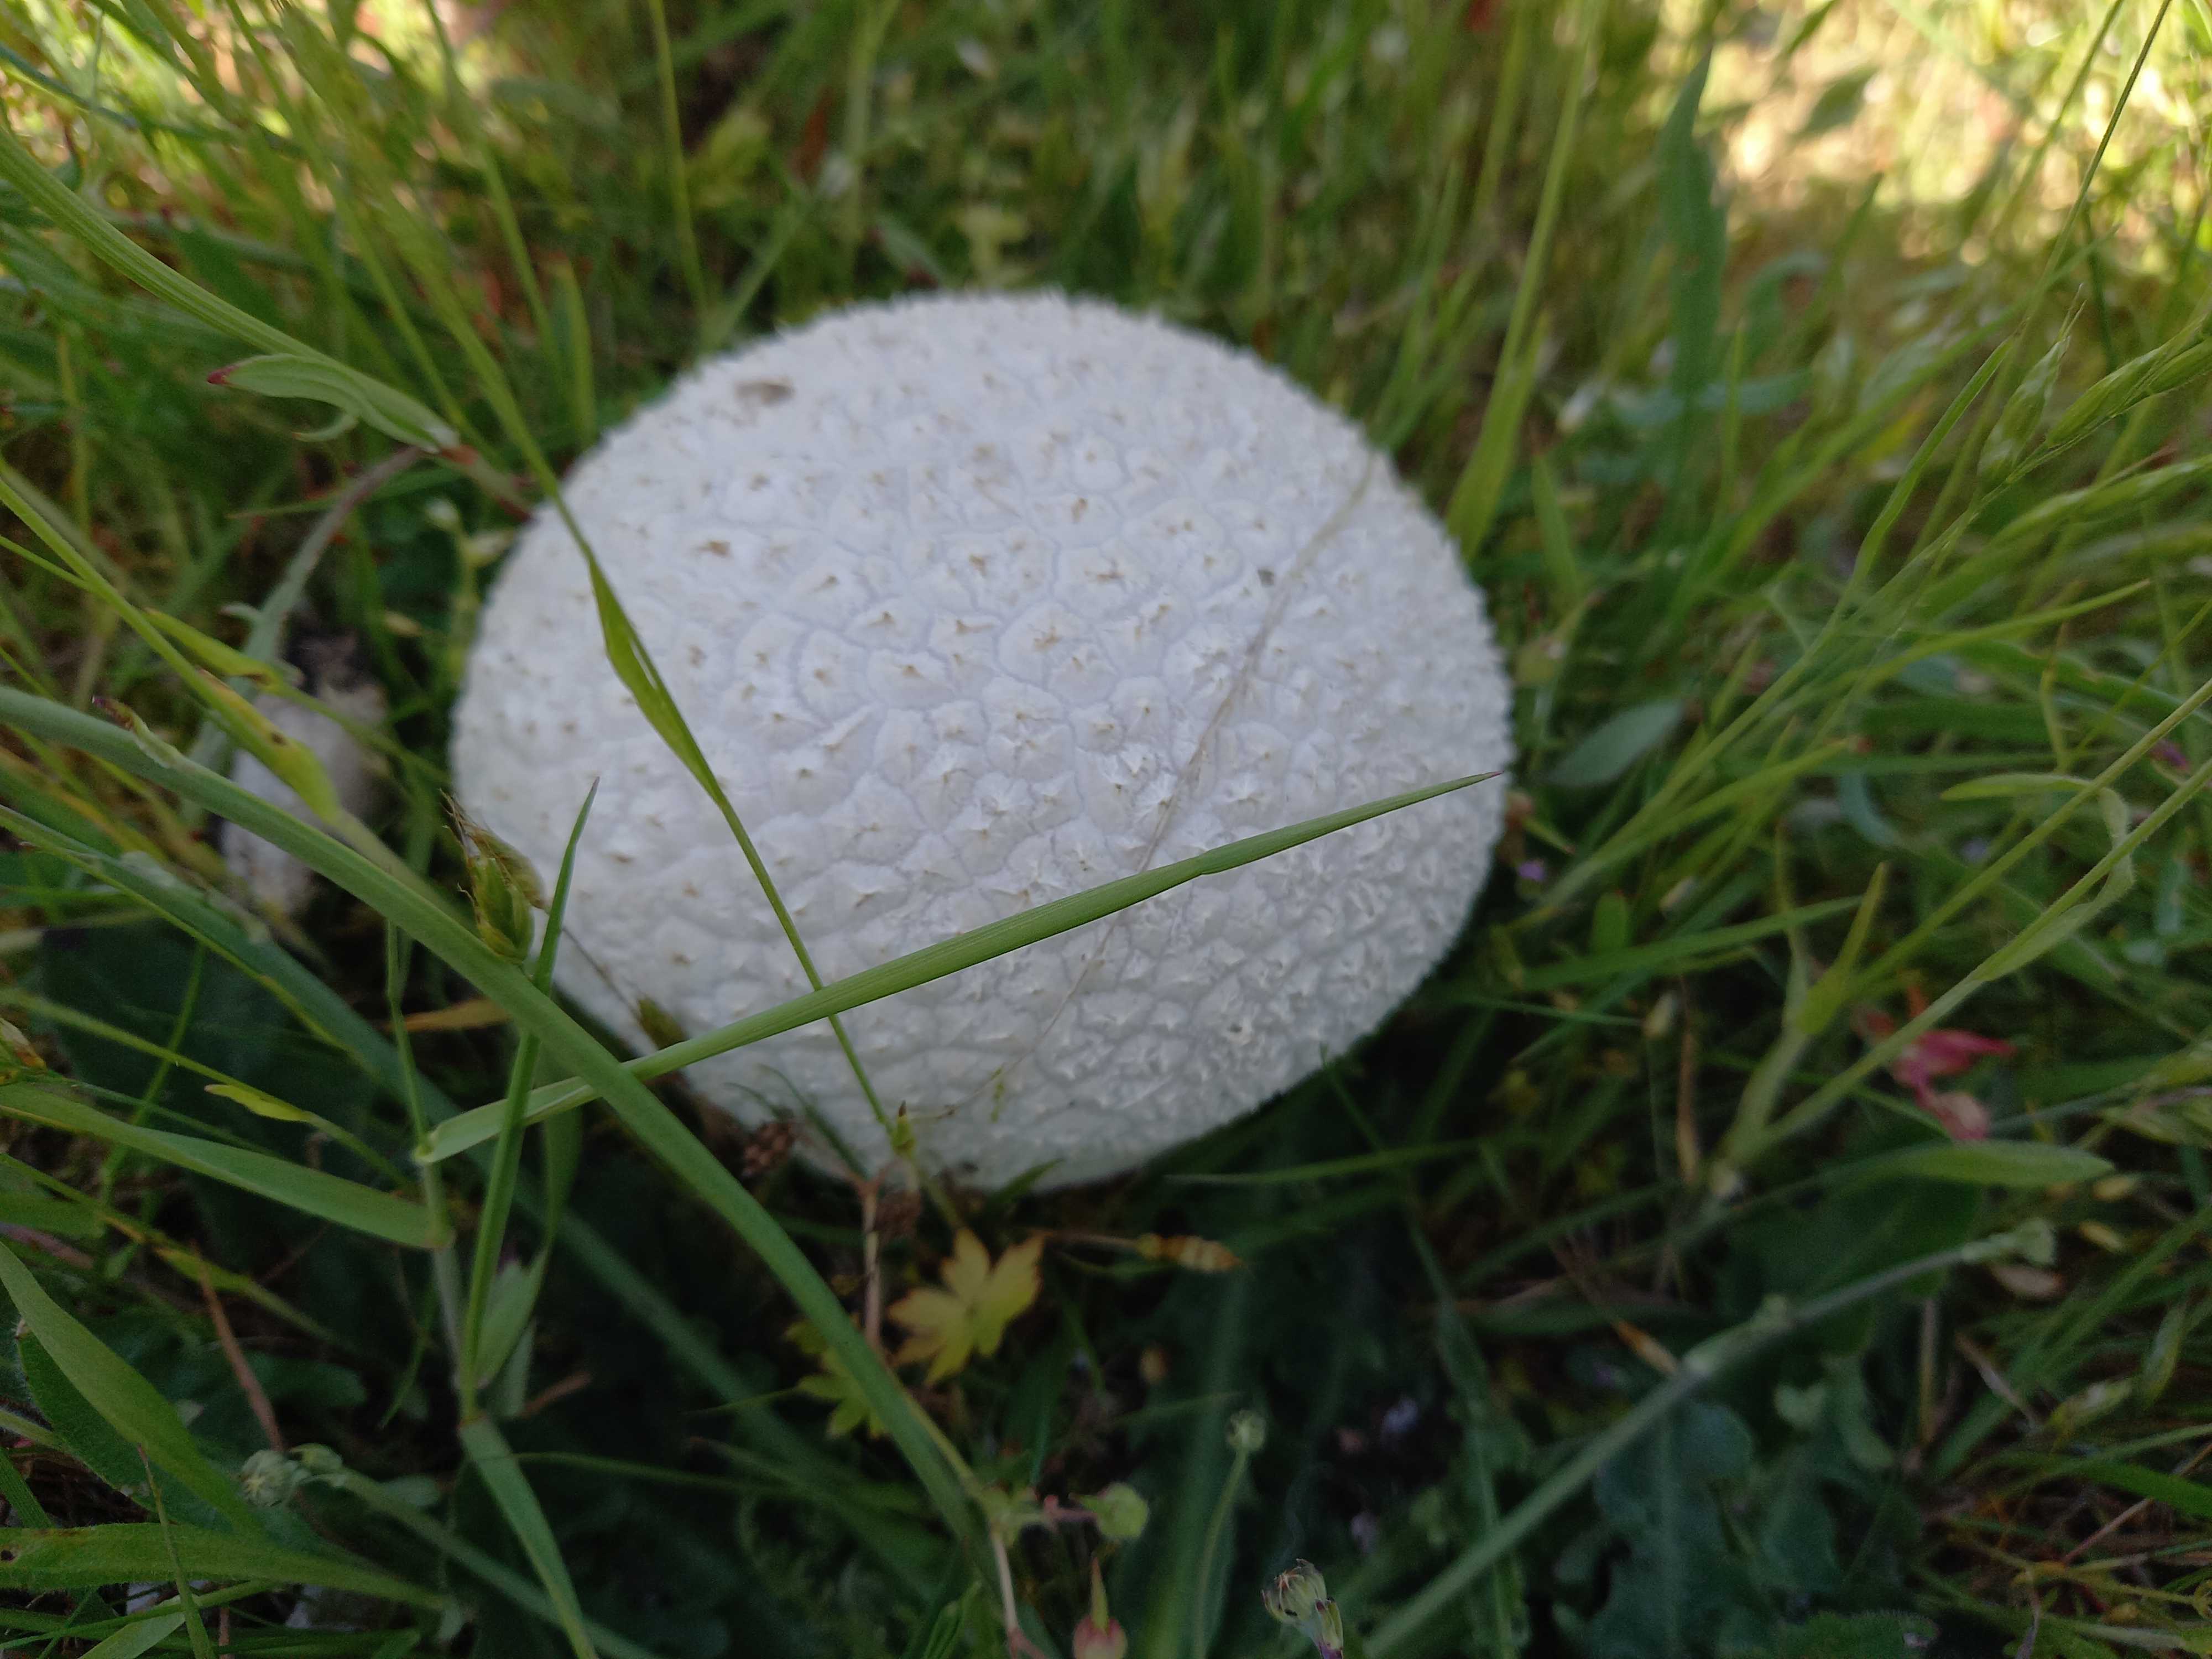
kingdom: Fungi
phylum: Basidiomycota
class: Agaricomycetes
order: Agaricales
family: Lycoperdaceae
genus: Bovistella
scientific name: Bovistella utriformis
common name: skællet støvbold
